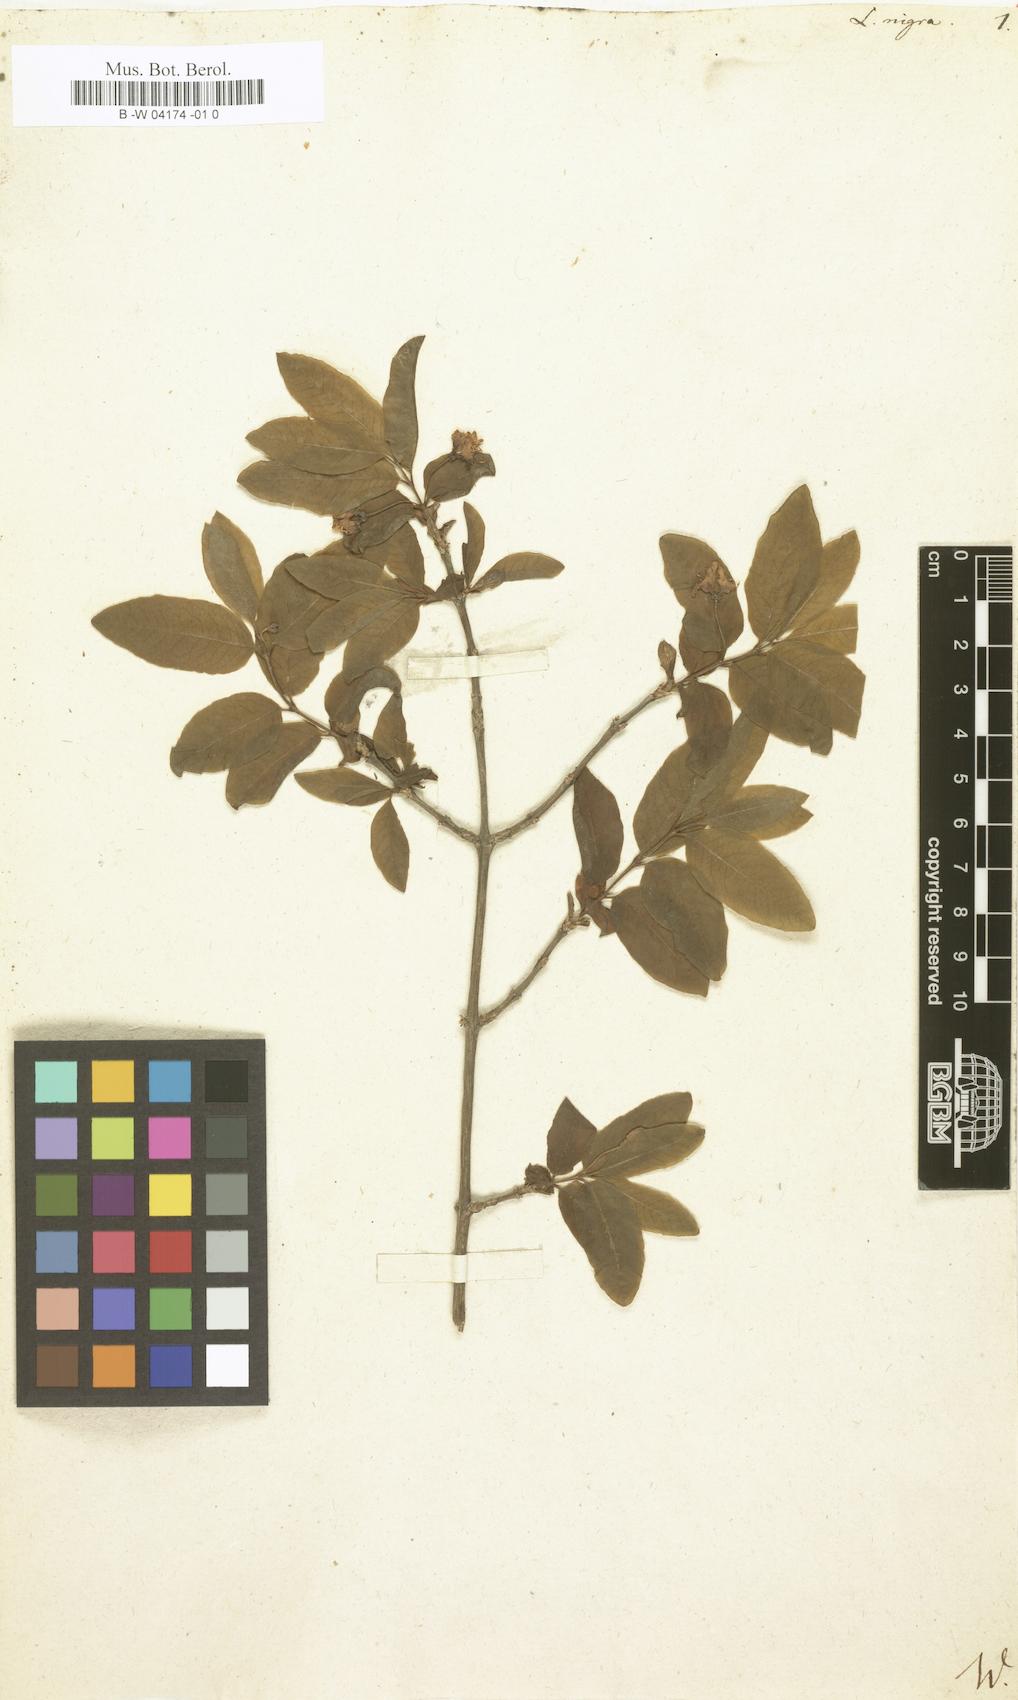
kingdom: Plantae
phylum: Tracheophyta
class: Magnoliopsida
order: Dipsacales
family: Caprifoliaceae
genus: Lonicera
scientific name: Lonicera nigra
